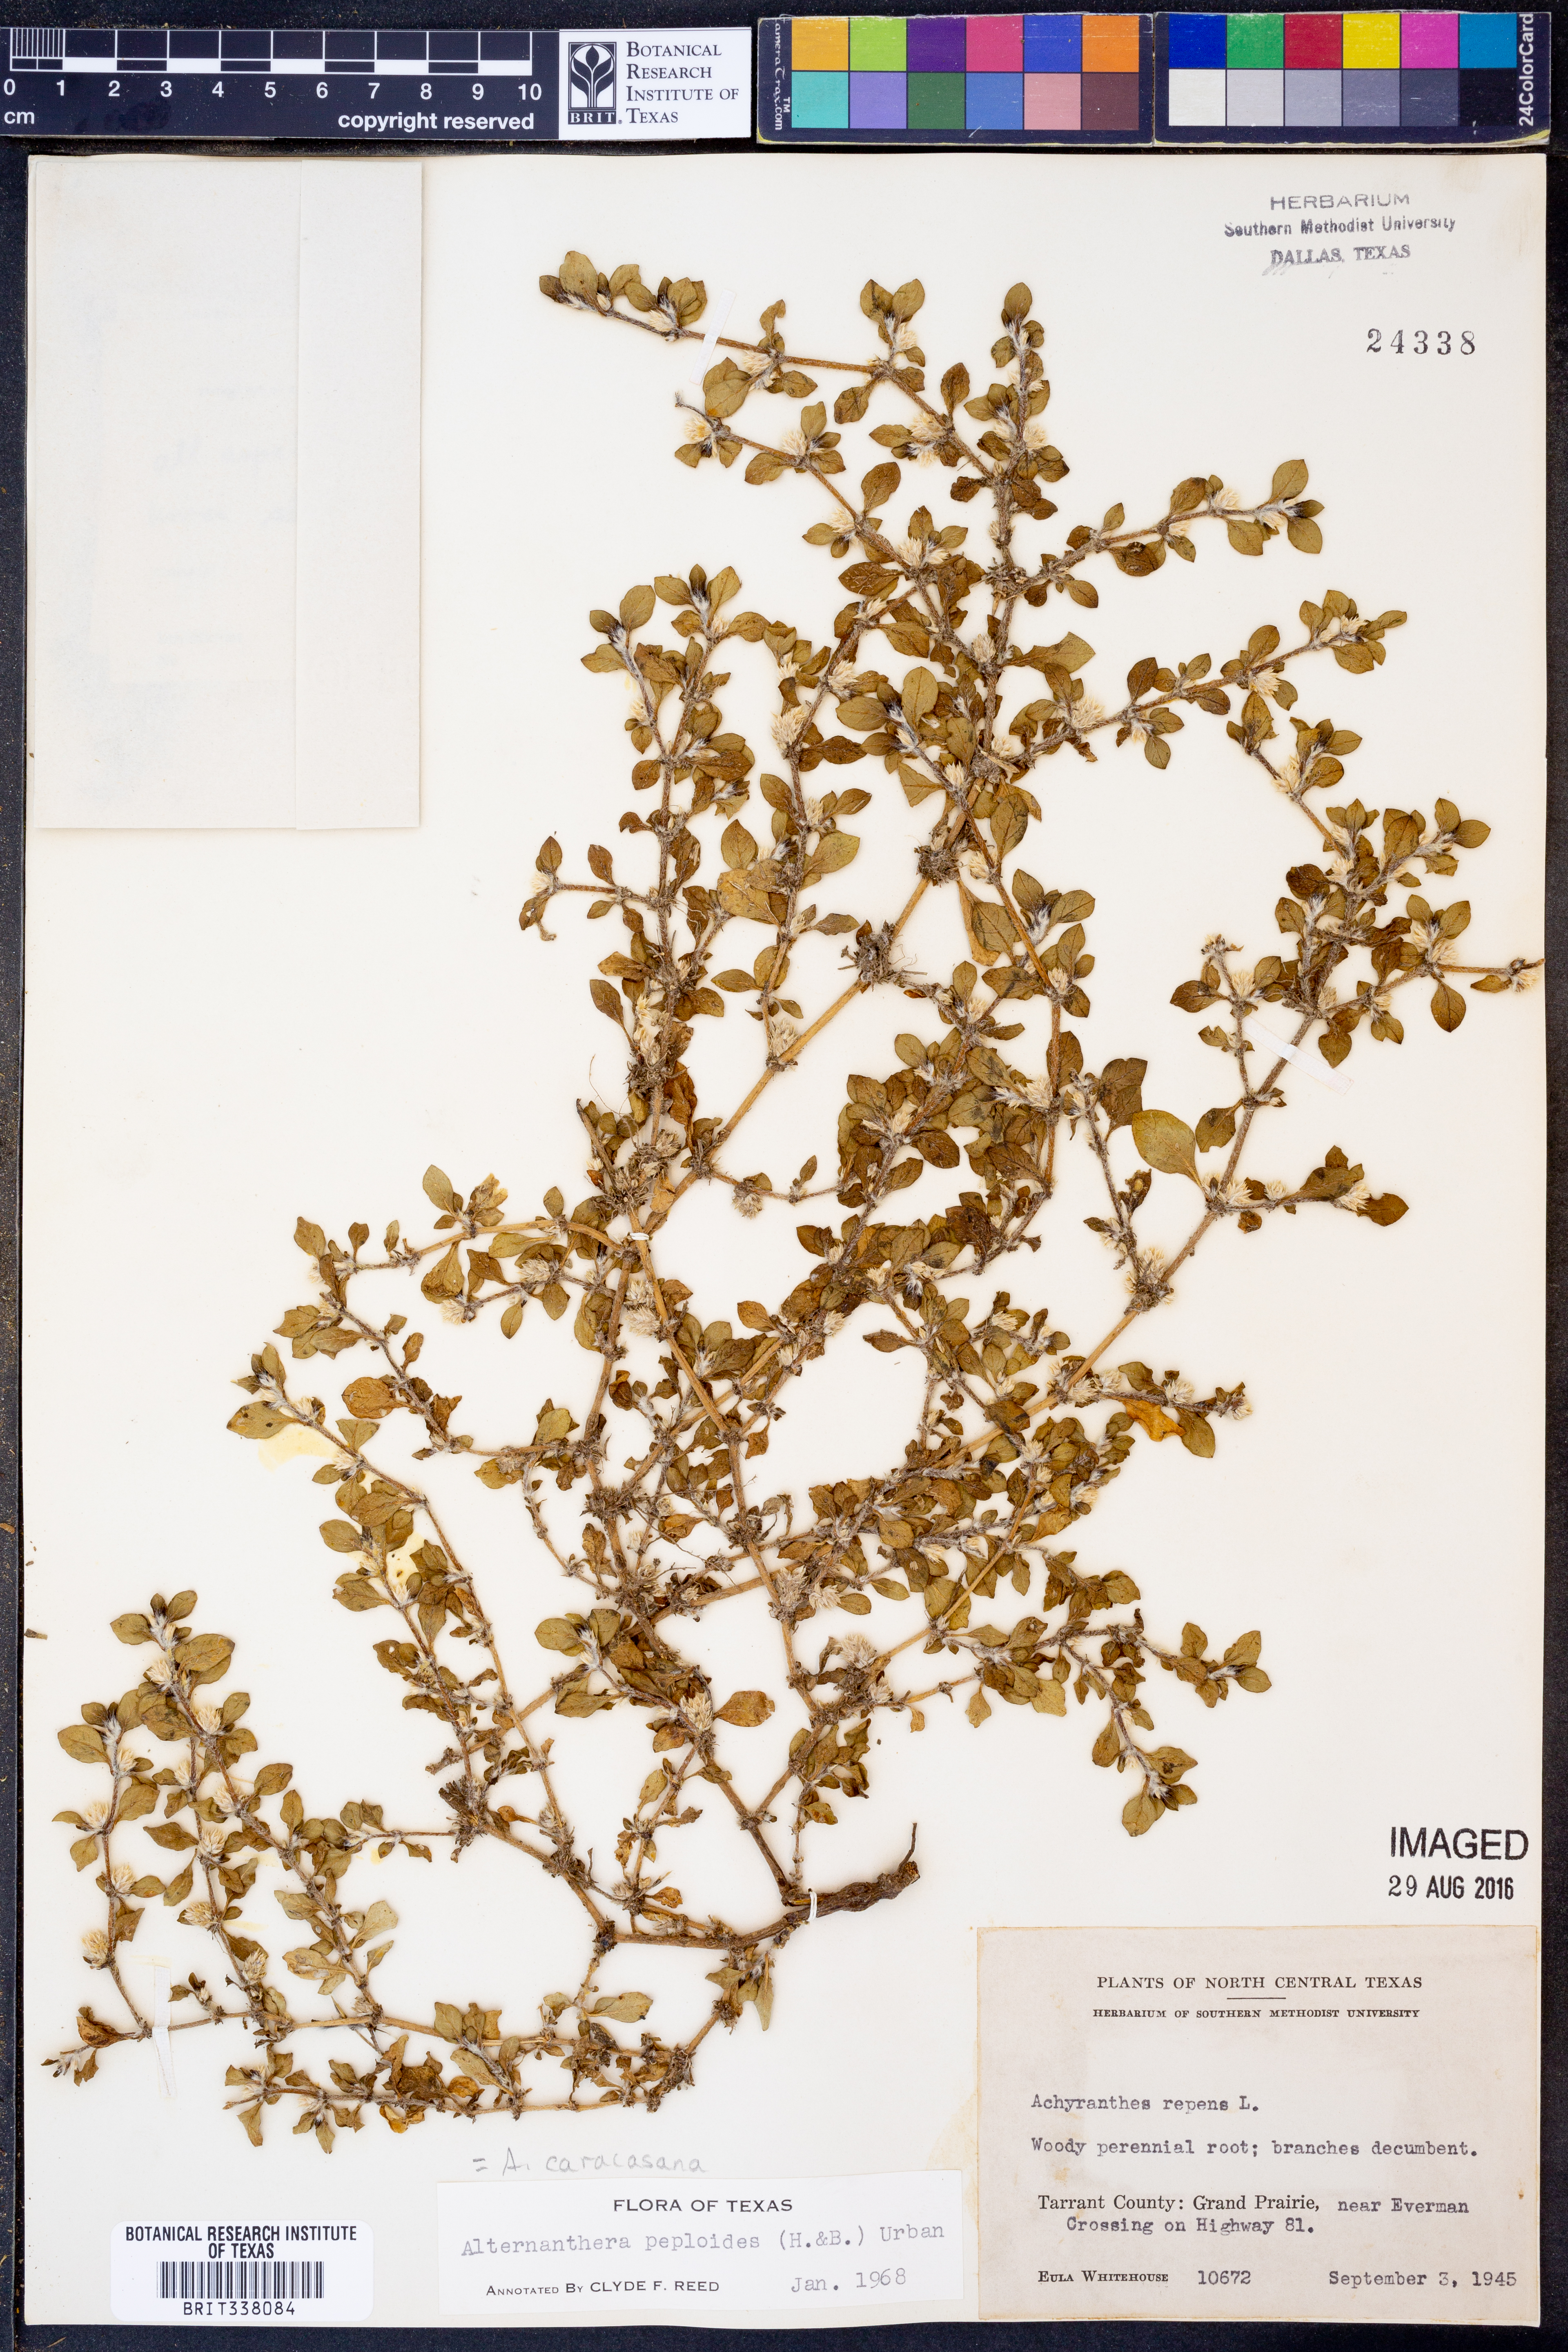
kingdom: Plantae
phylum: Tracheophyta
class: Magnoliopsida
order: Caryophyllales
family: Amaranthaceae
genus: Alternanthera
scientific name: Alternanthera caracasana
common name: Washerwoman
